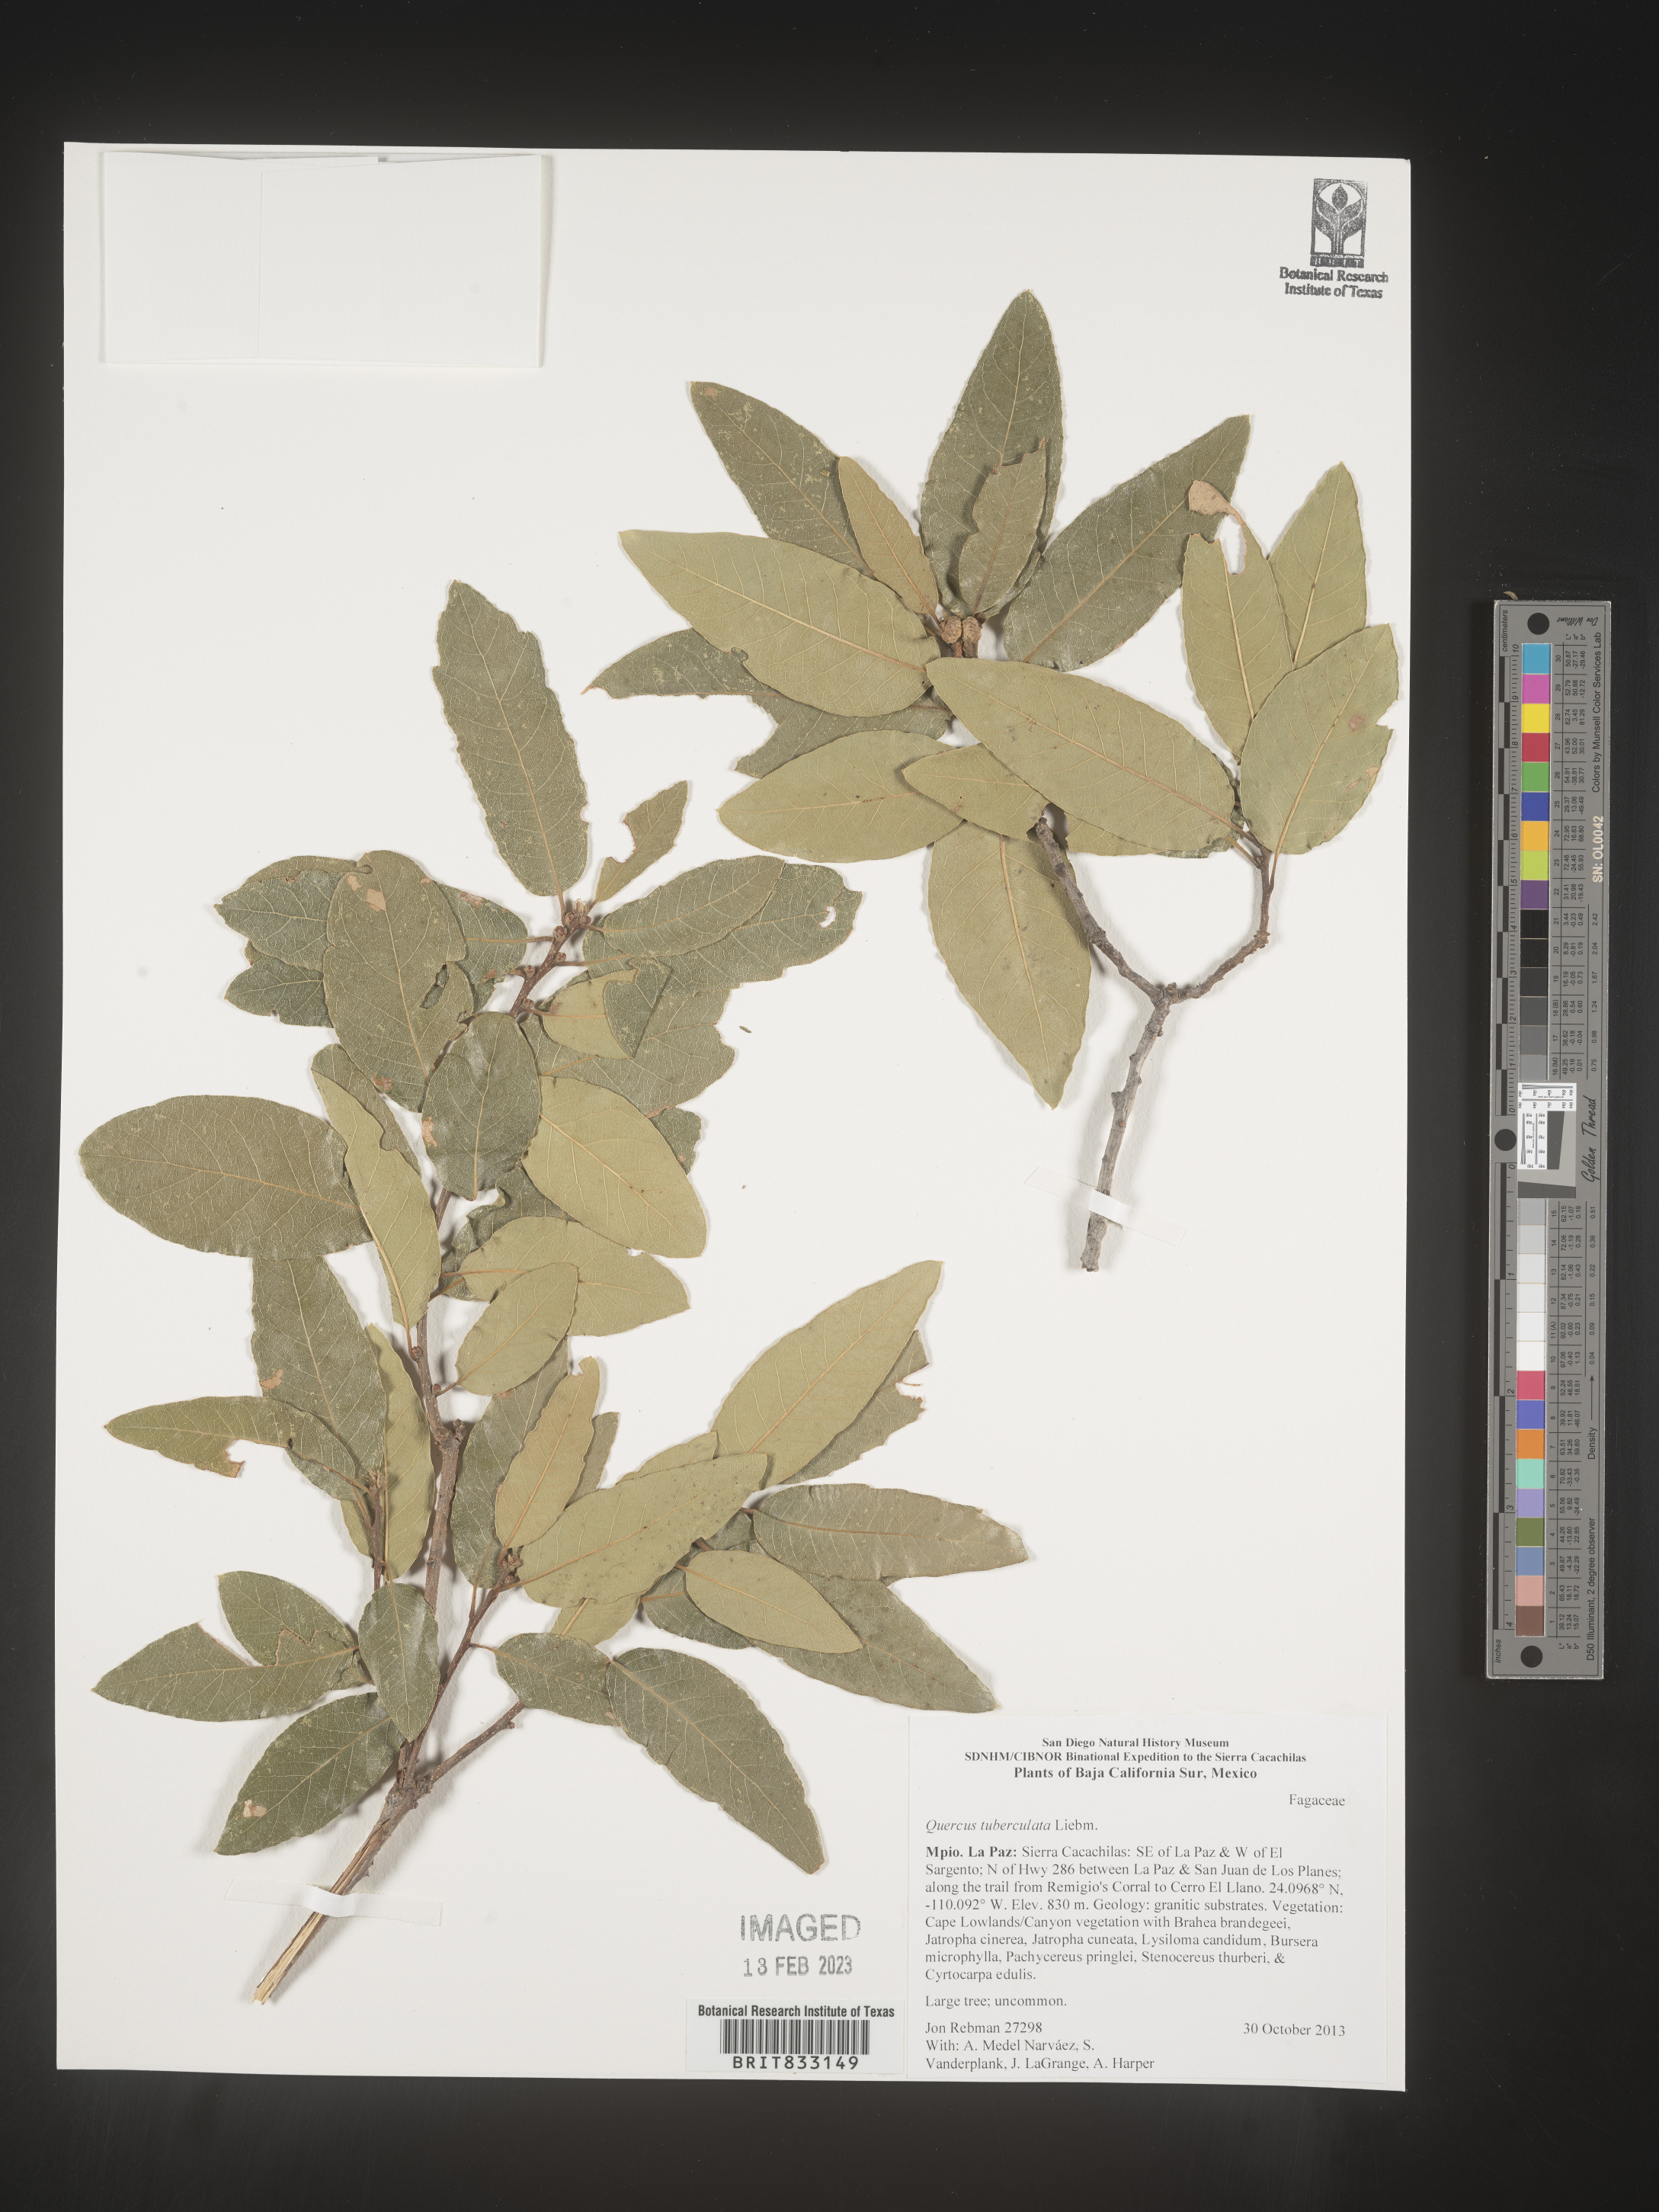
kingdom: Plantae
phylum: Tracheophyta
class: Magnoliopsida
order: Fagales
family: Fagaceae
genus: Quercus
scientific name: Quercus tuberculata
